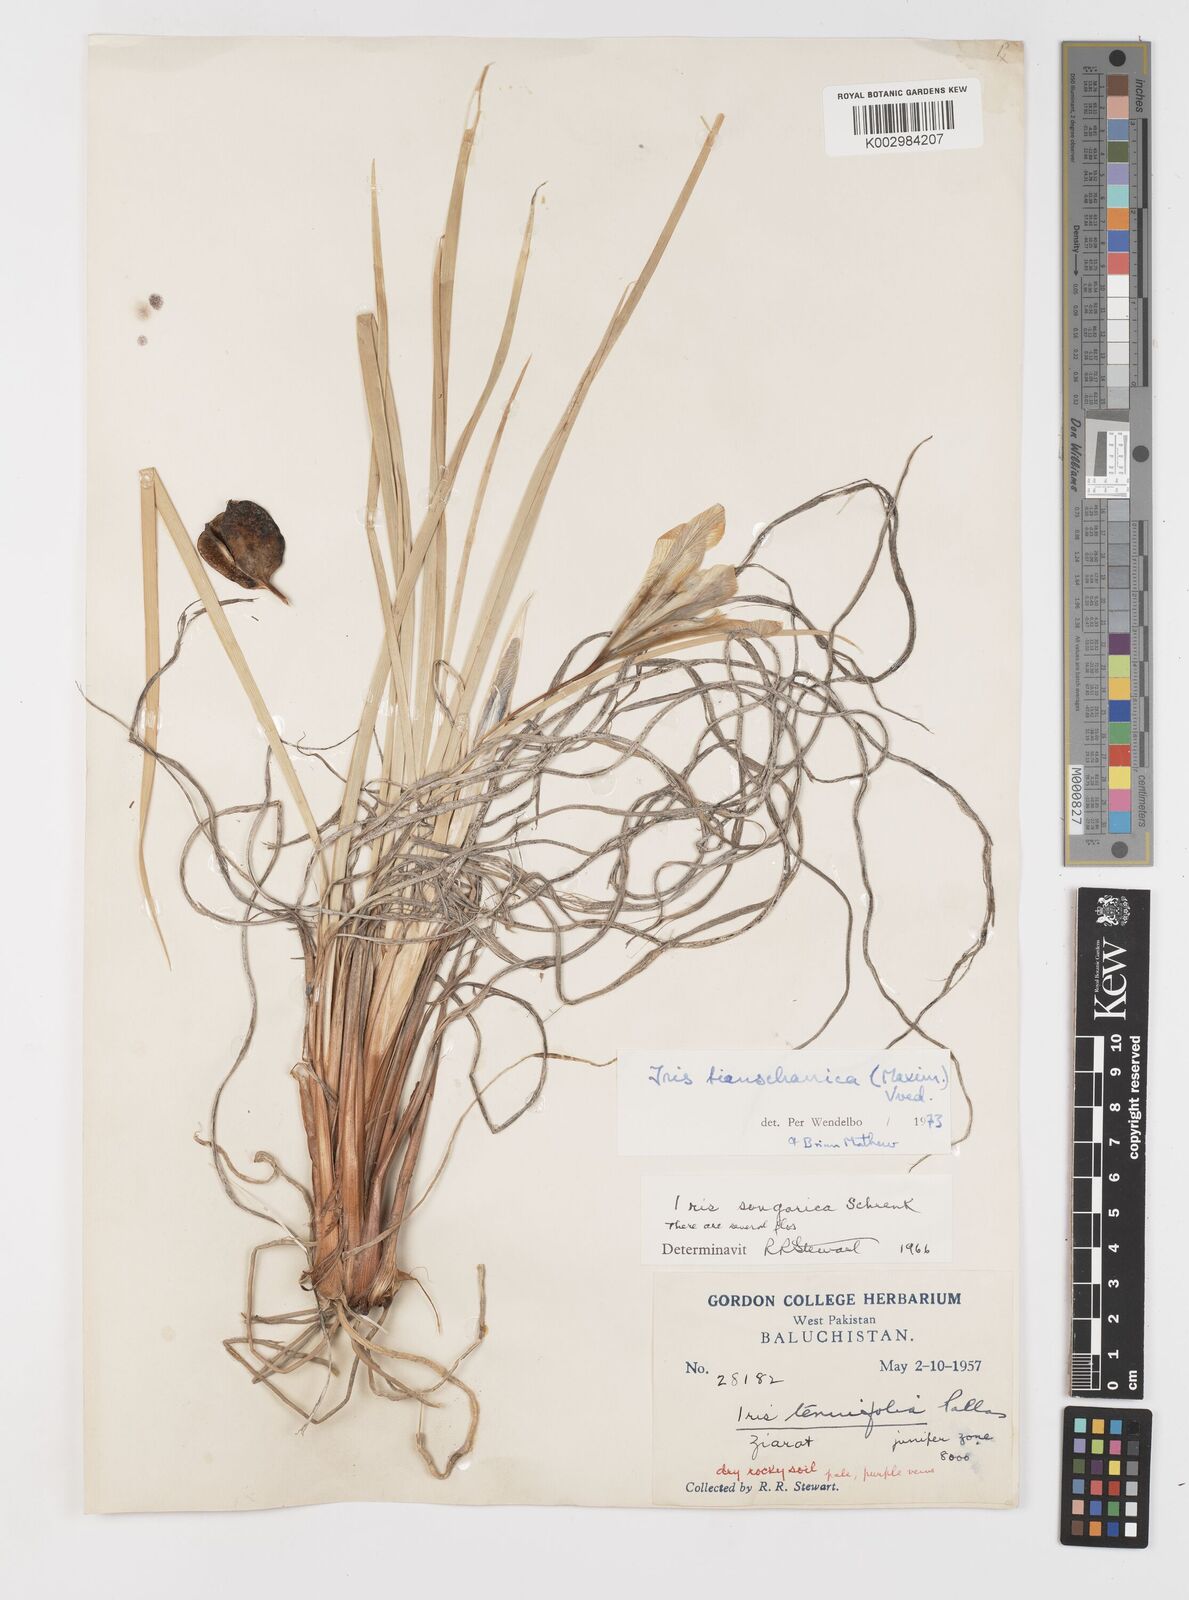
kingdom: Plantae
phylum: Tracheophyta
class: Liliopsida
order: Asparagales
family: Iridaceae
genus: Iris
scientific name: Iris loczyi
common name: Tian shan mountain iris
